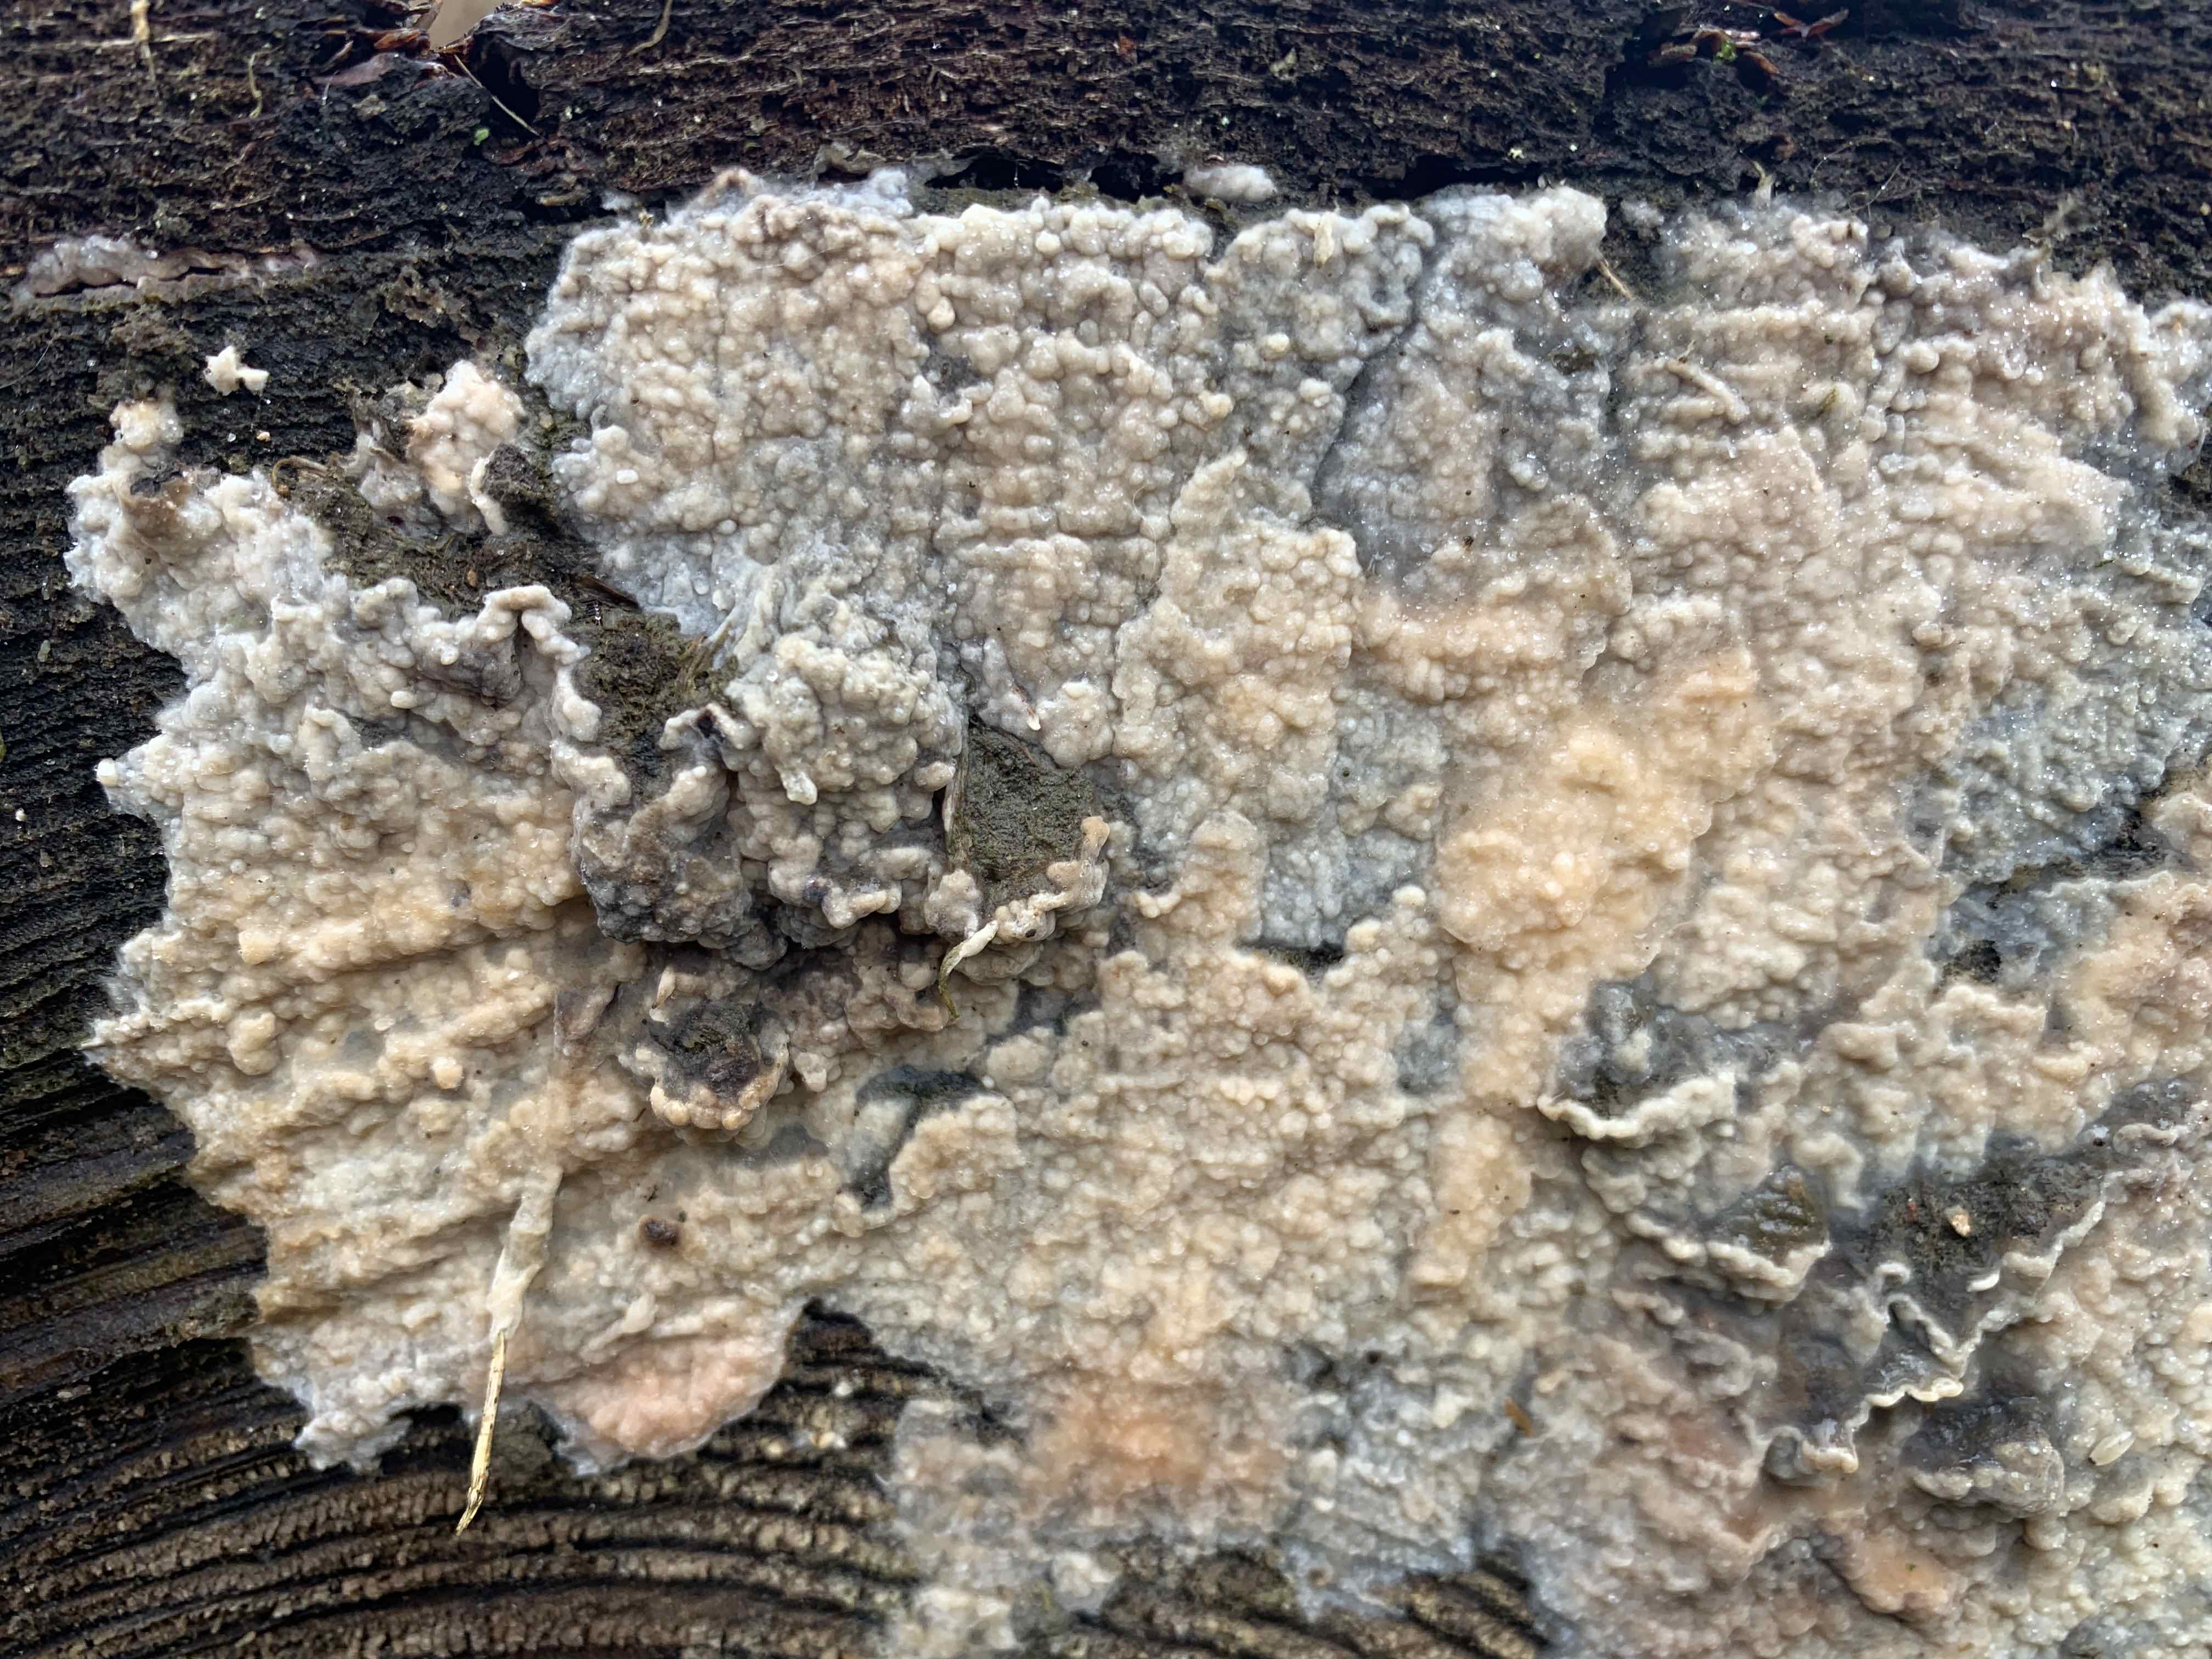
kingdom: Fungi
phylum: Basidiomycota
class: Agaricomycetes
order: Polyporales
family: Phanerochaetaceae
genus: Phlebiopsis
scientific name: Phlebiopsis gigantea
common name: kæmpebarksvamp
